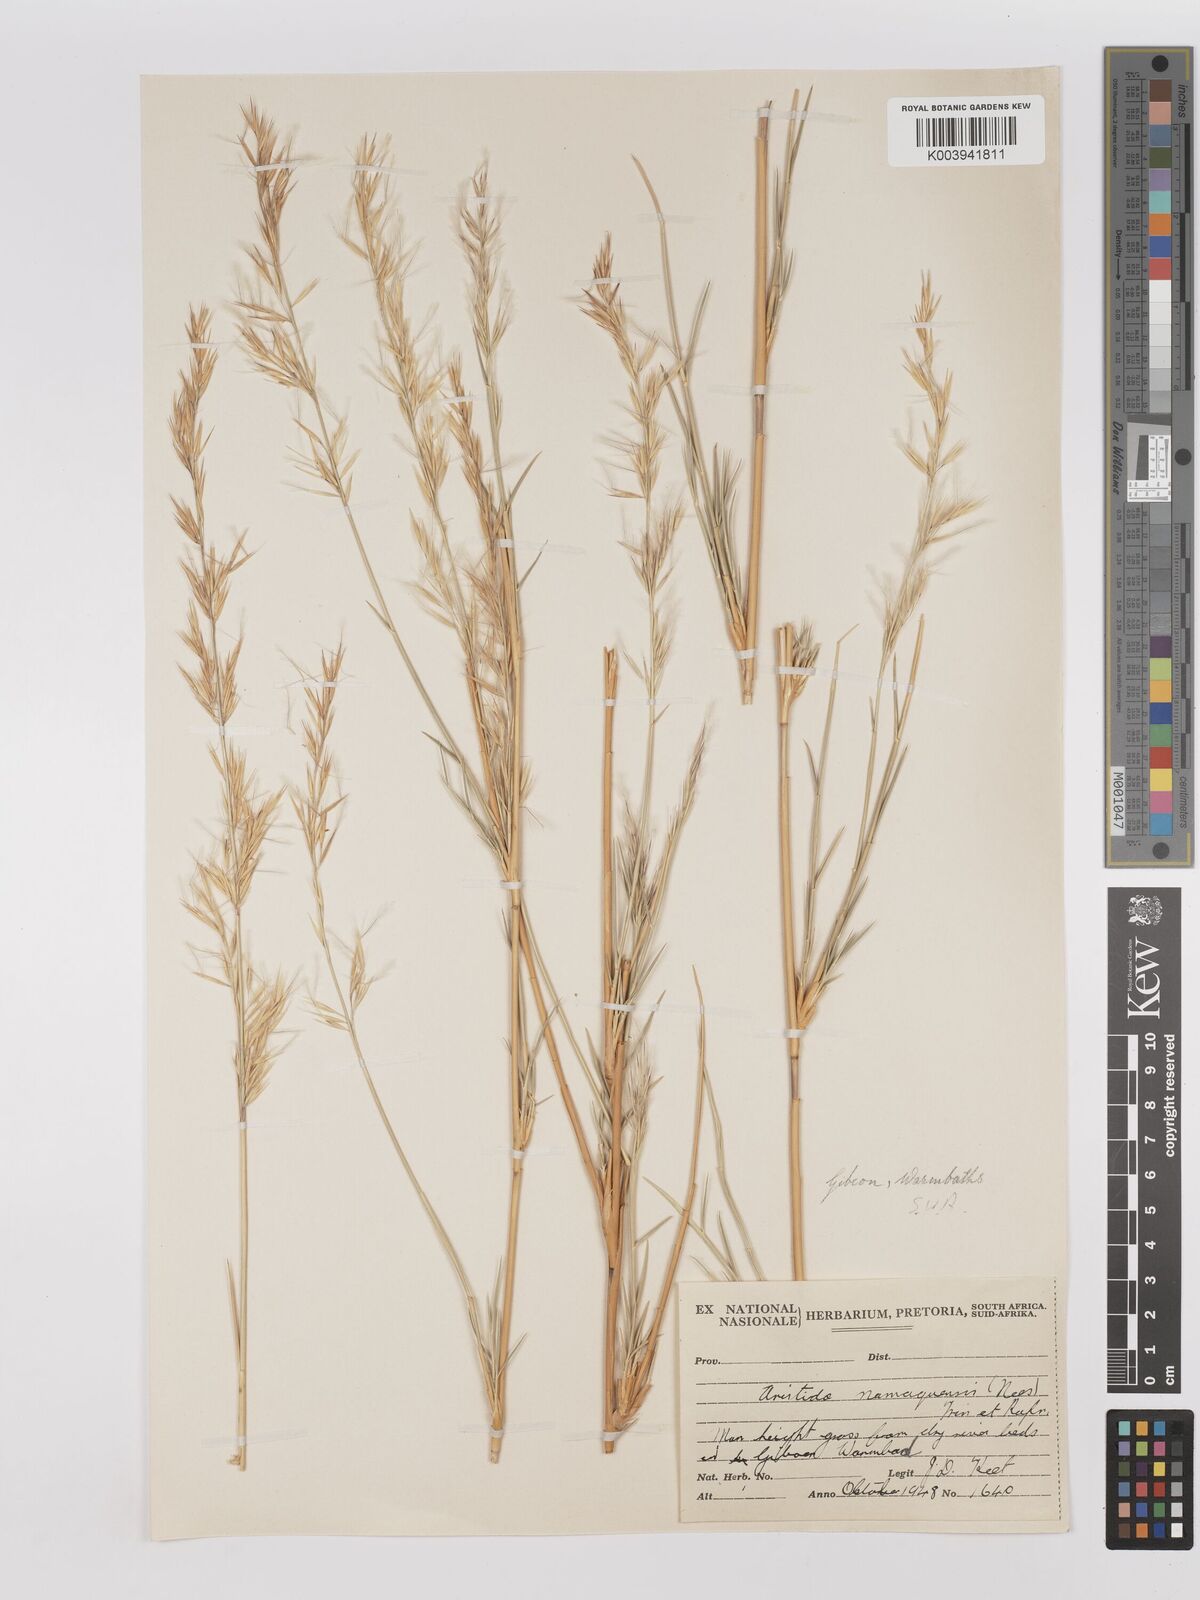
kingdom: Plantae
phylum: Tracheophyta
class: Liliopsida
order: Poales
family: Poaceae
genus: Stipagrostis
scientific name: Stipagrostis namaquensis
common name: River bushman grass
